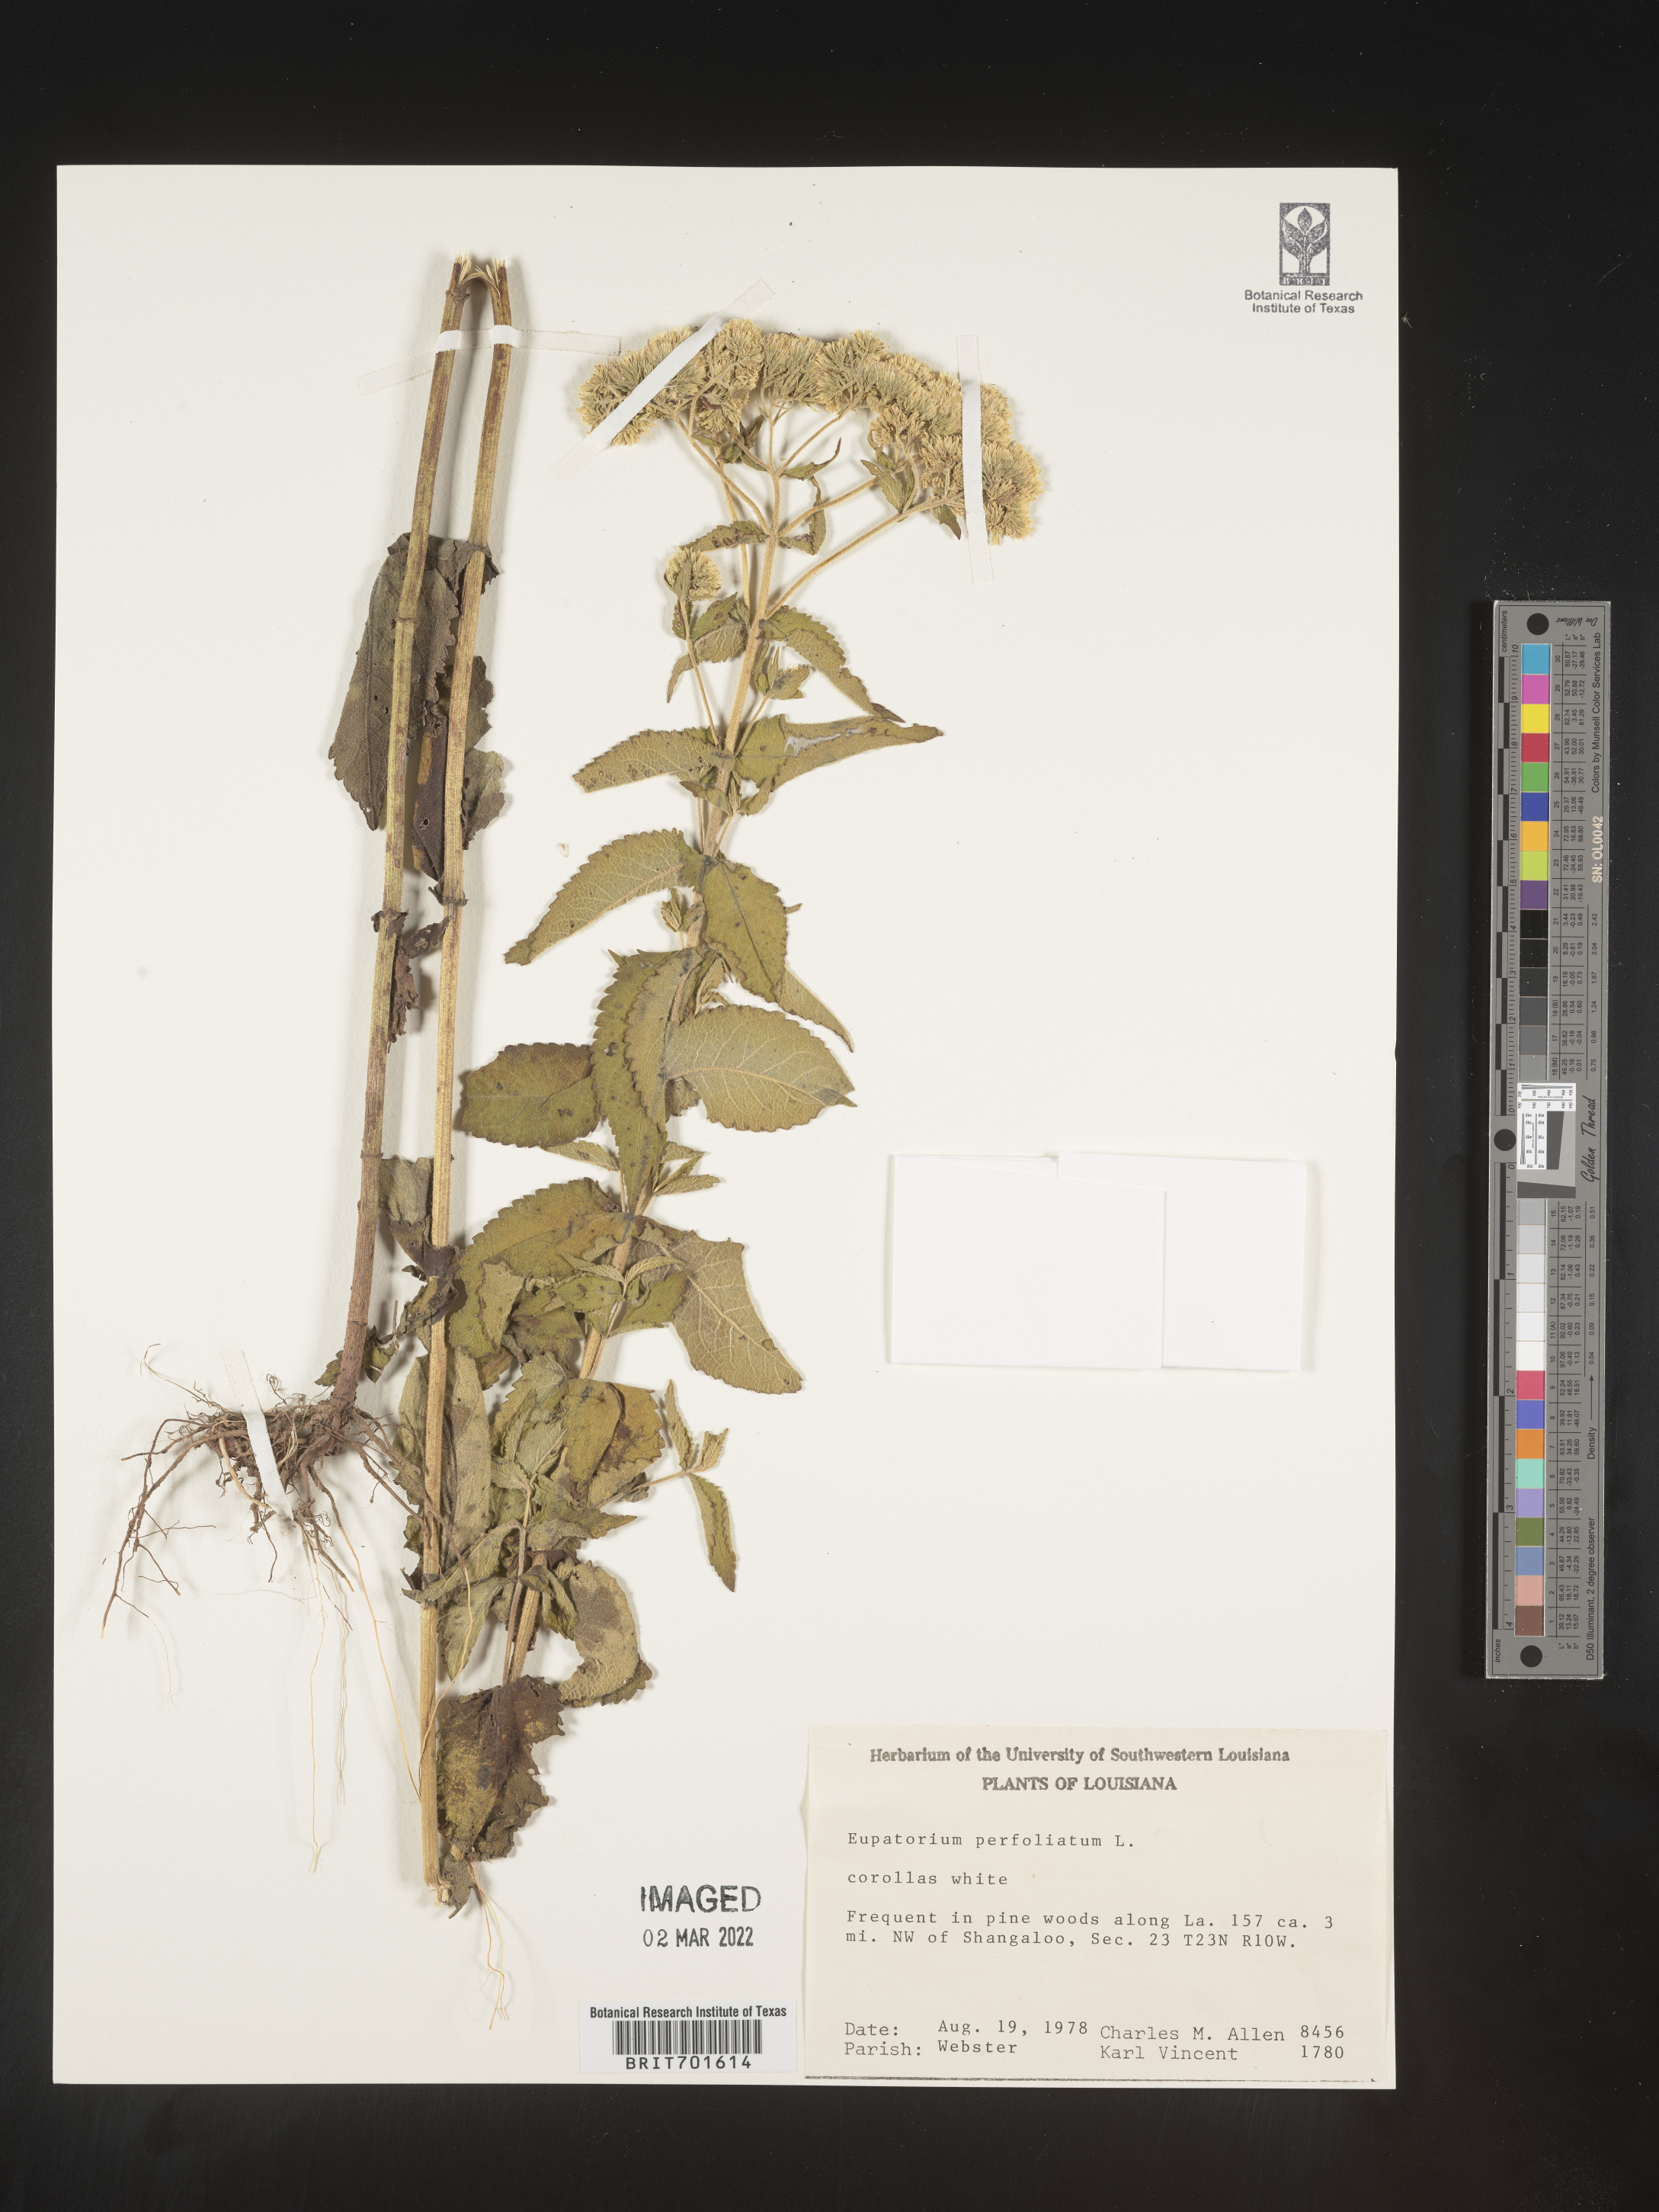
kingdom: Plantae
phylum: Tracheophyta
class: Magnoliopsida
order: Asterales
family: Asteraceae
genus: Eupatorium
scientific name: Eupatorium perfoliatum
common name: Boneset
